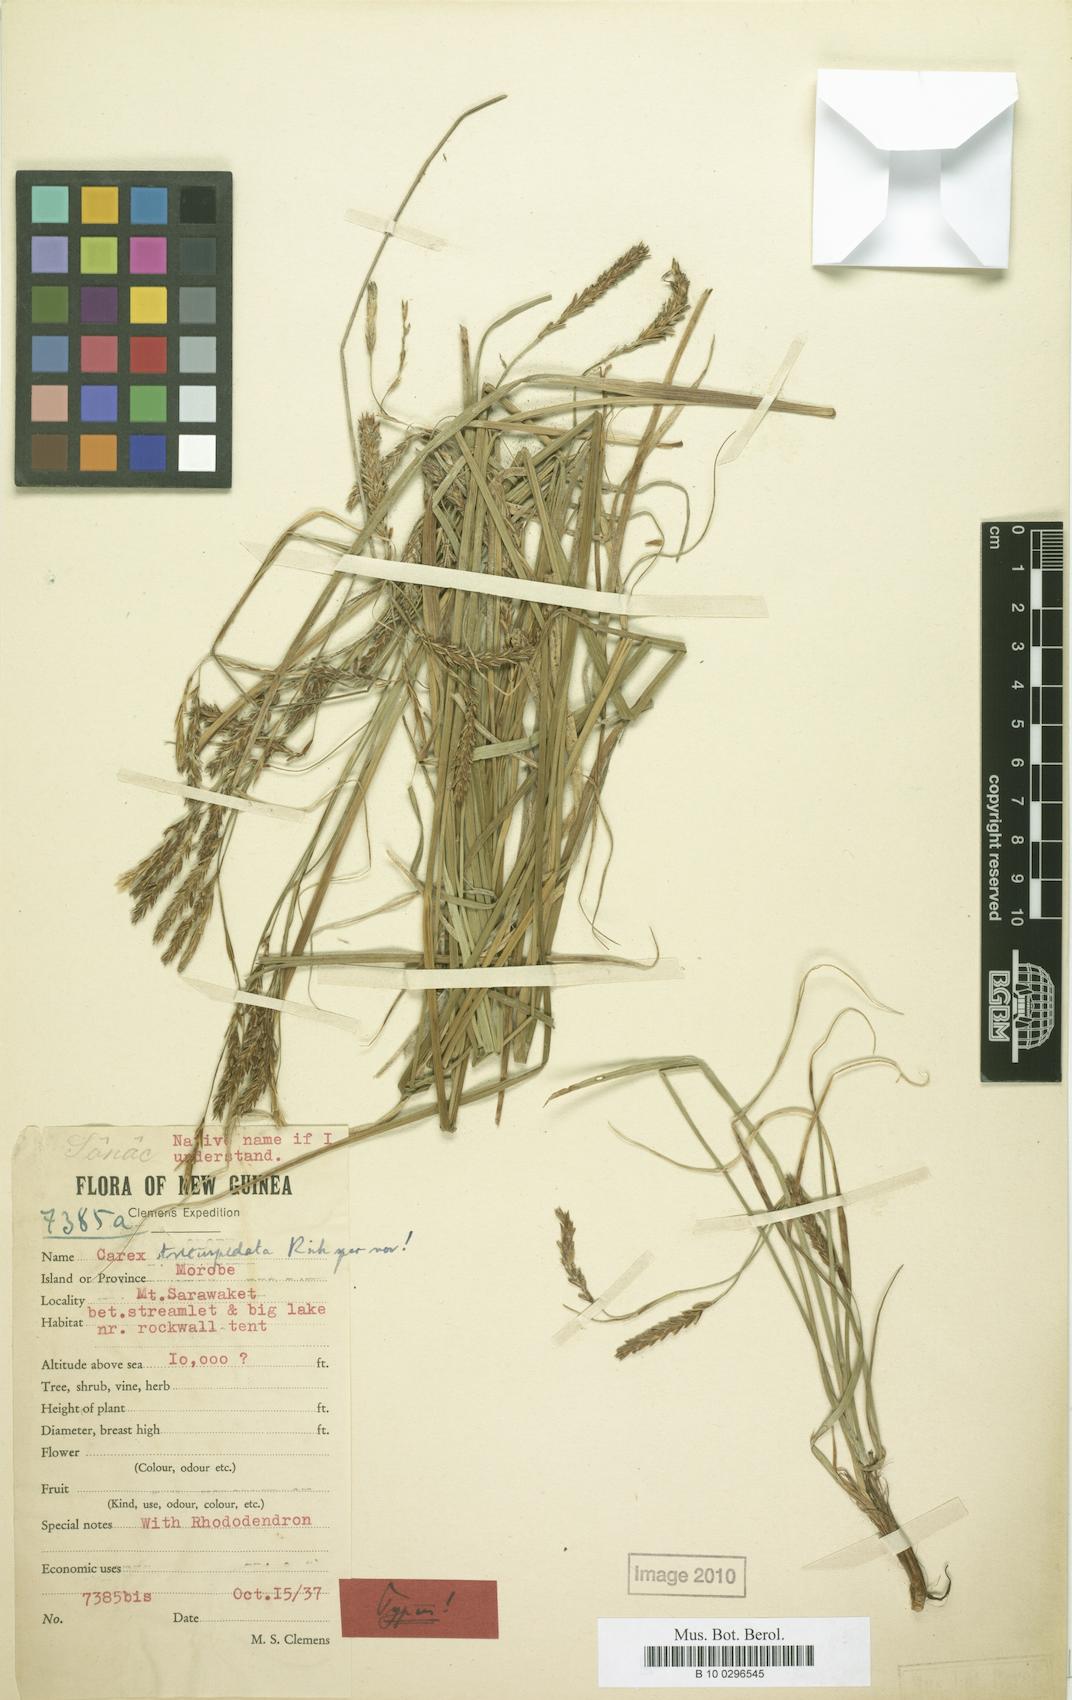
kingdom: Plantae
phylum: Tracheophyta
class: Liliopsida
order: Poales
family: Cyperaceae
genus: Carex
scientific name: Carex brachyanthera
